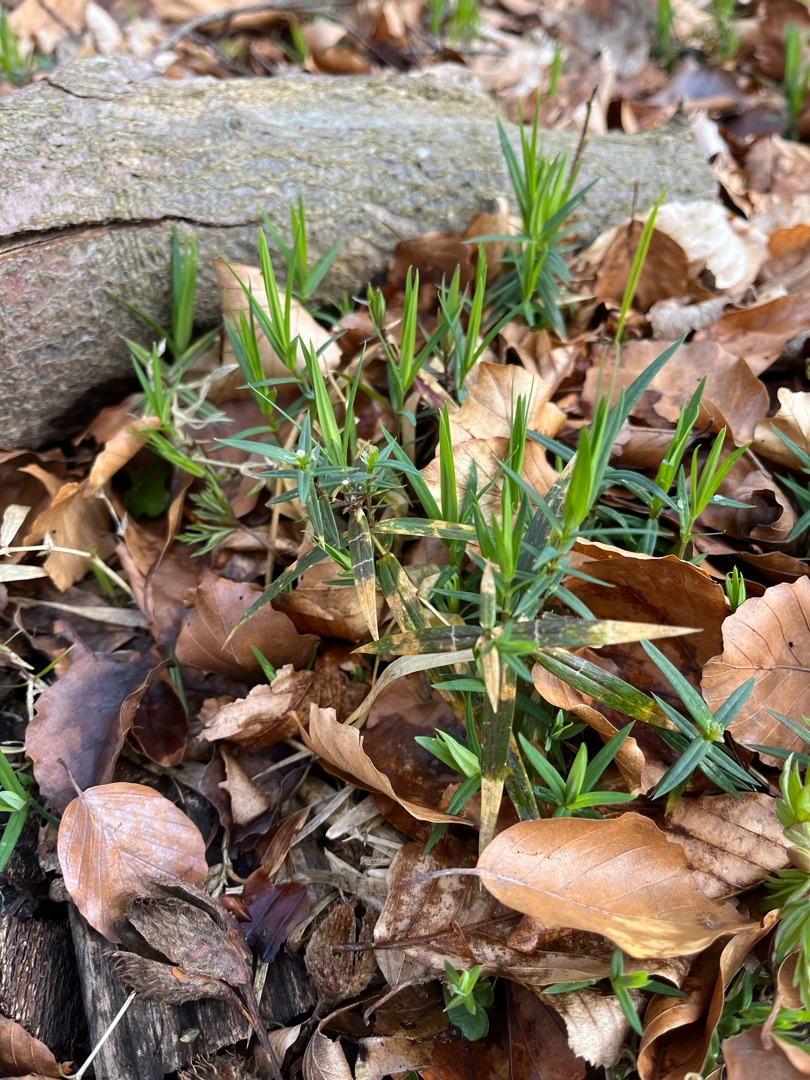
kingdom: Plantae
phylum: Tracheophyta
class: Magnoliopsida
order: Caryophyllales
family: Caryophyllaceae
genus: Rabelera
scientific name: Rabelera holostea
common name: Stor fladstjerne
